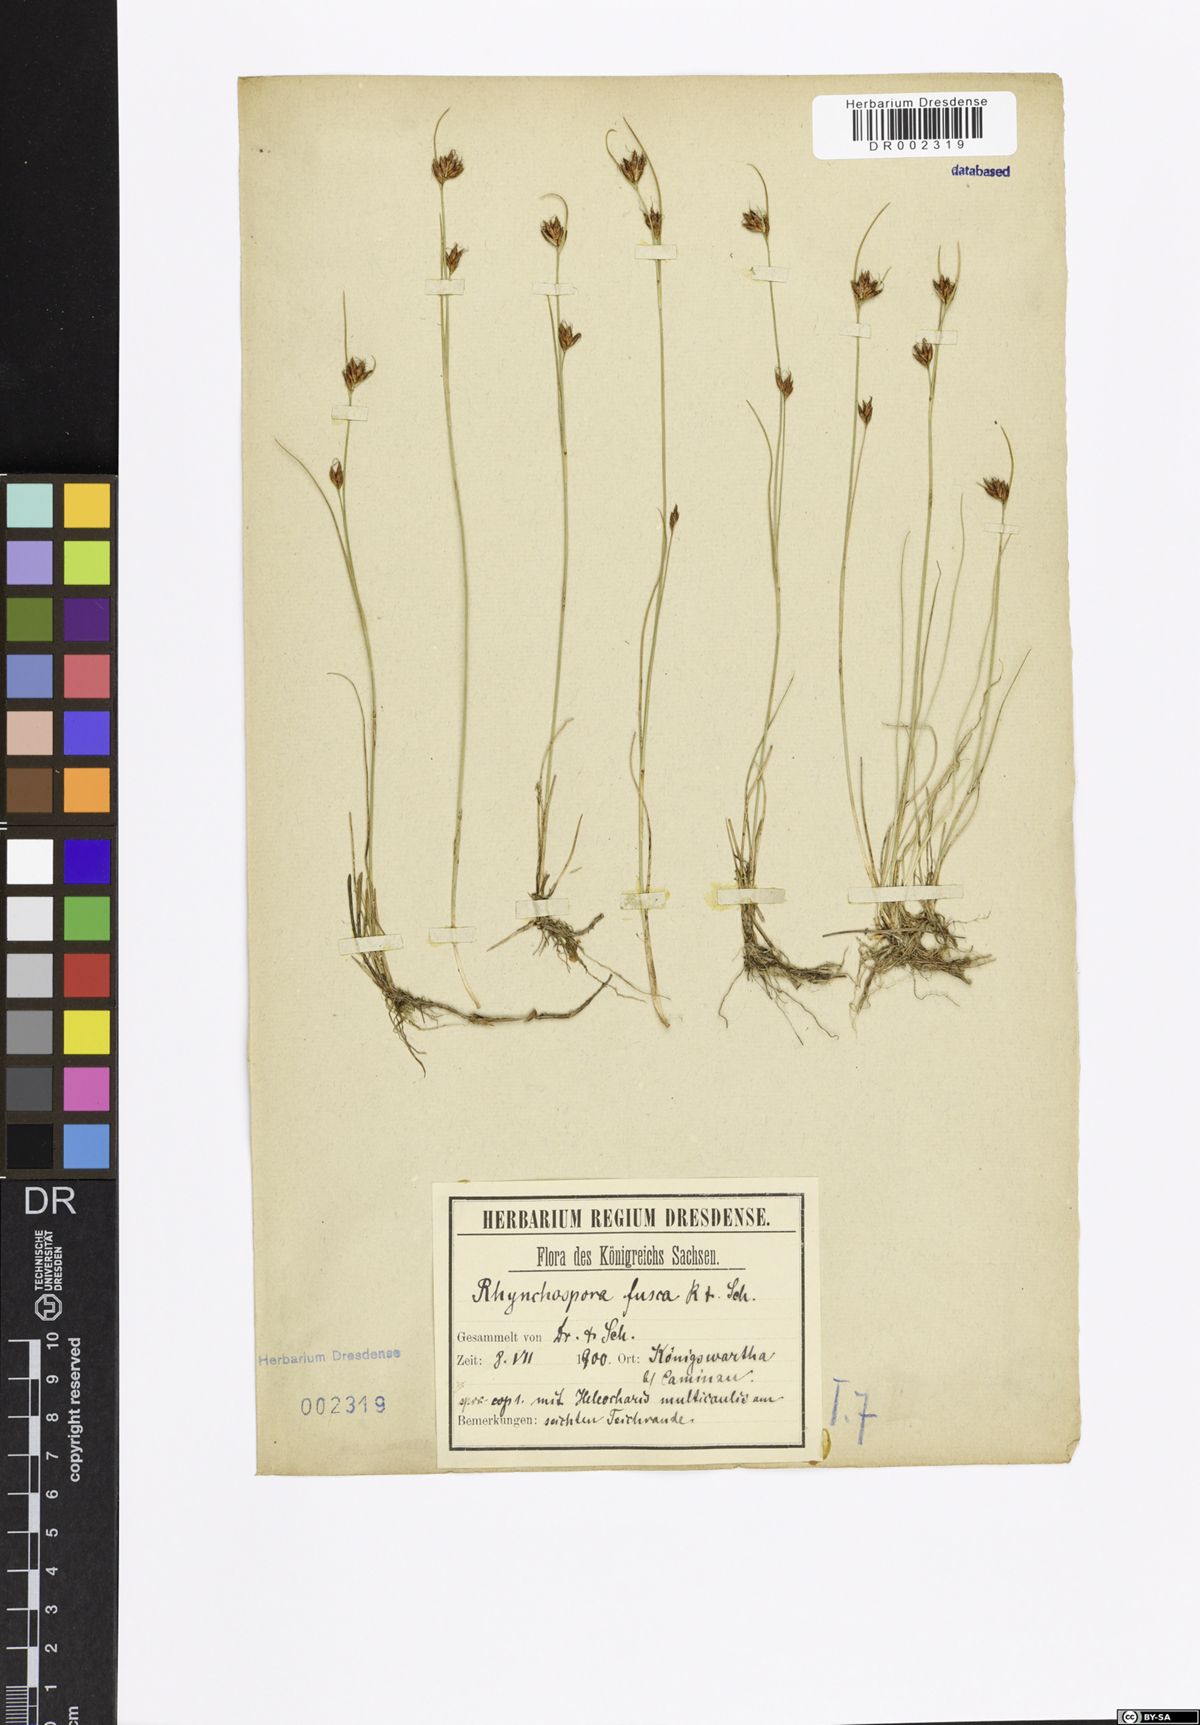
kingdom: Plantae
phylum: Tracheophyta
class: Liliopsida
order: Poales
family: Cyperaceae
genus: Rhynchospora
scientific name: Rhynchospora fusca
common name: Brown beak-sedge
